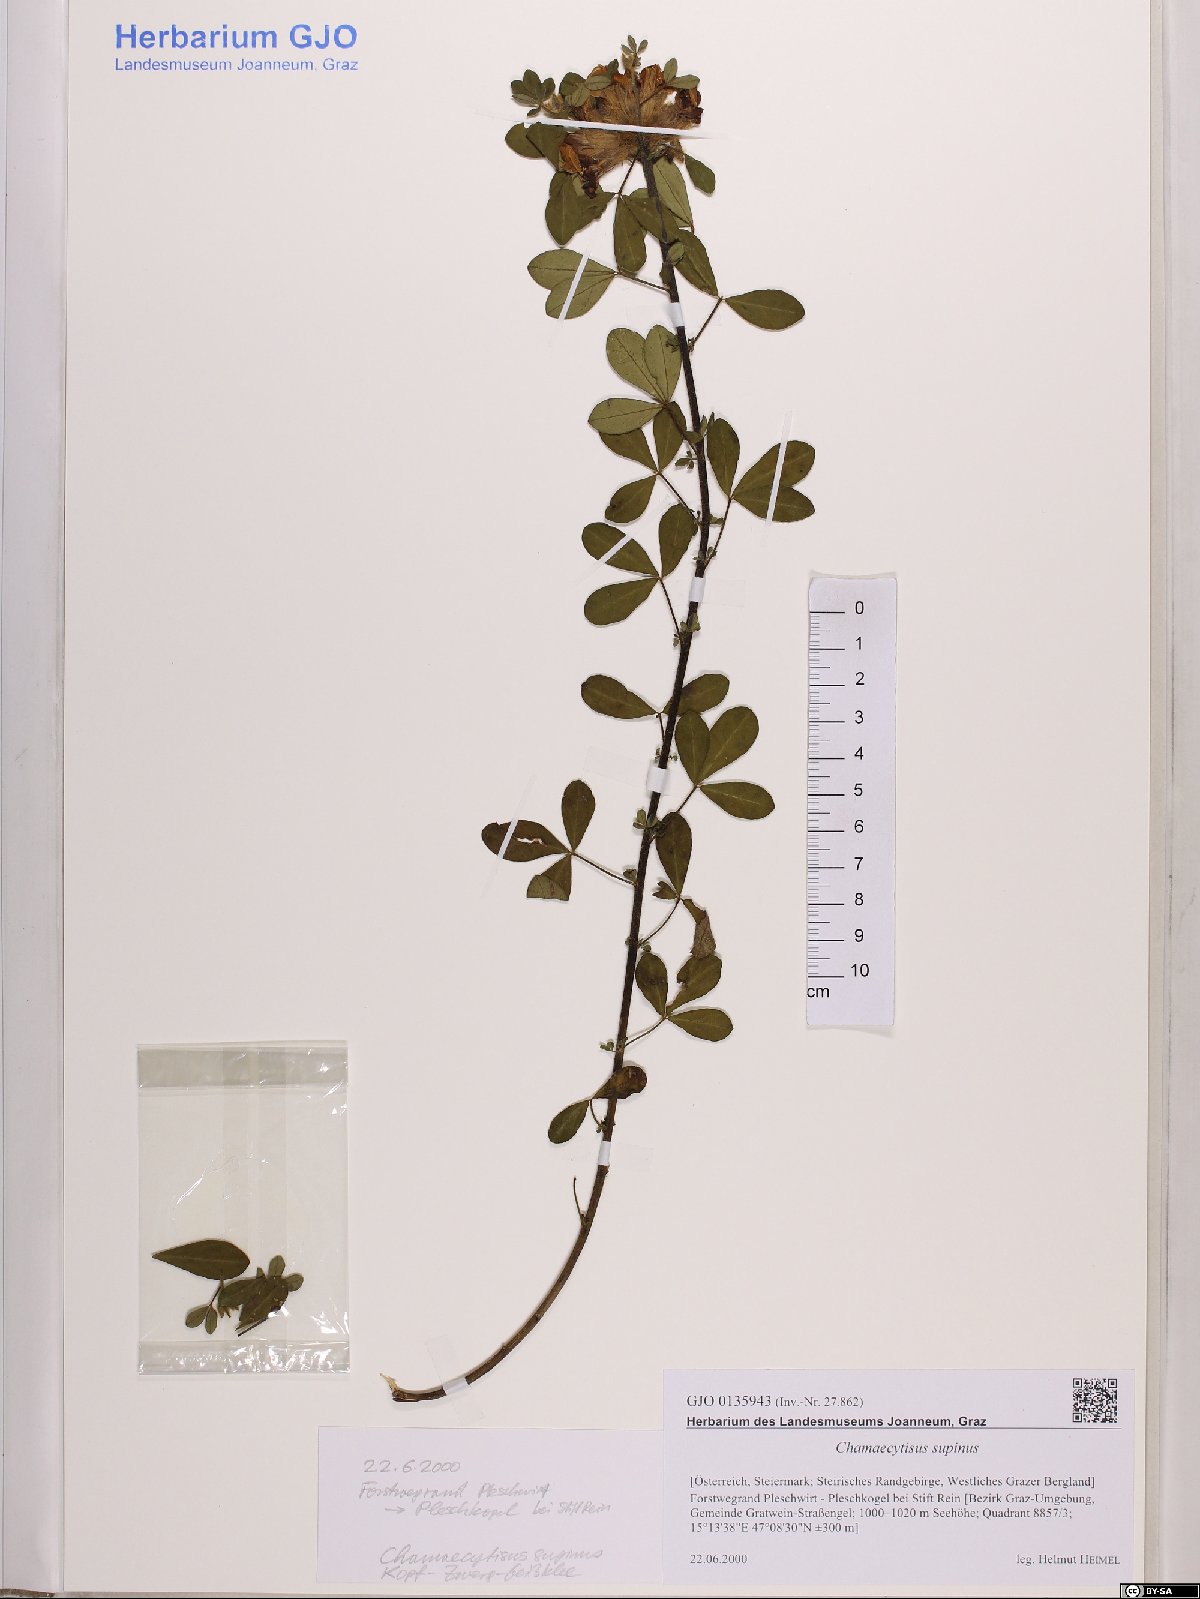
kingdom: Plantae
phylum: Tracheophyta
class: Magnoliopsida
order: Fabales
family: Fabaceae
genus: Chamaecytisus
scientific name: Chamaecytisus supinus
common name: Clustered broom
